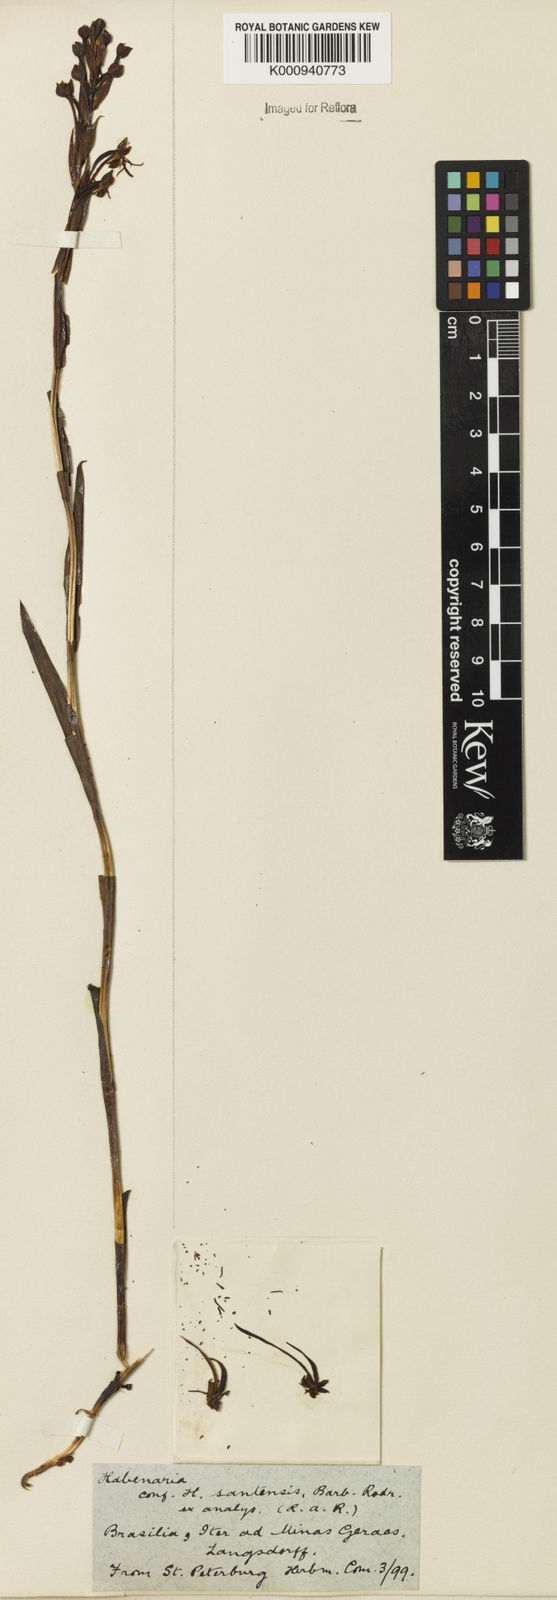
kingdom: Plantae
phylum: Tracheophyta
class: Liliopsida
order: Asparagales
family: Orchidaceae
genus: Habenaria
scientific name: Habenaria santensis
